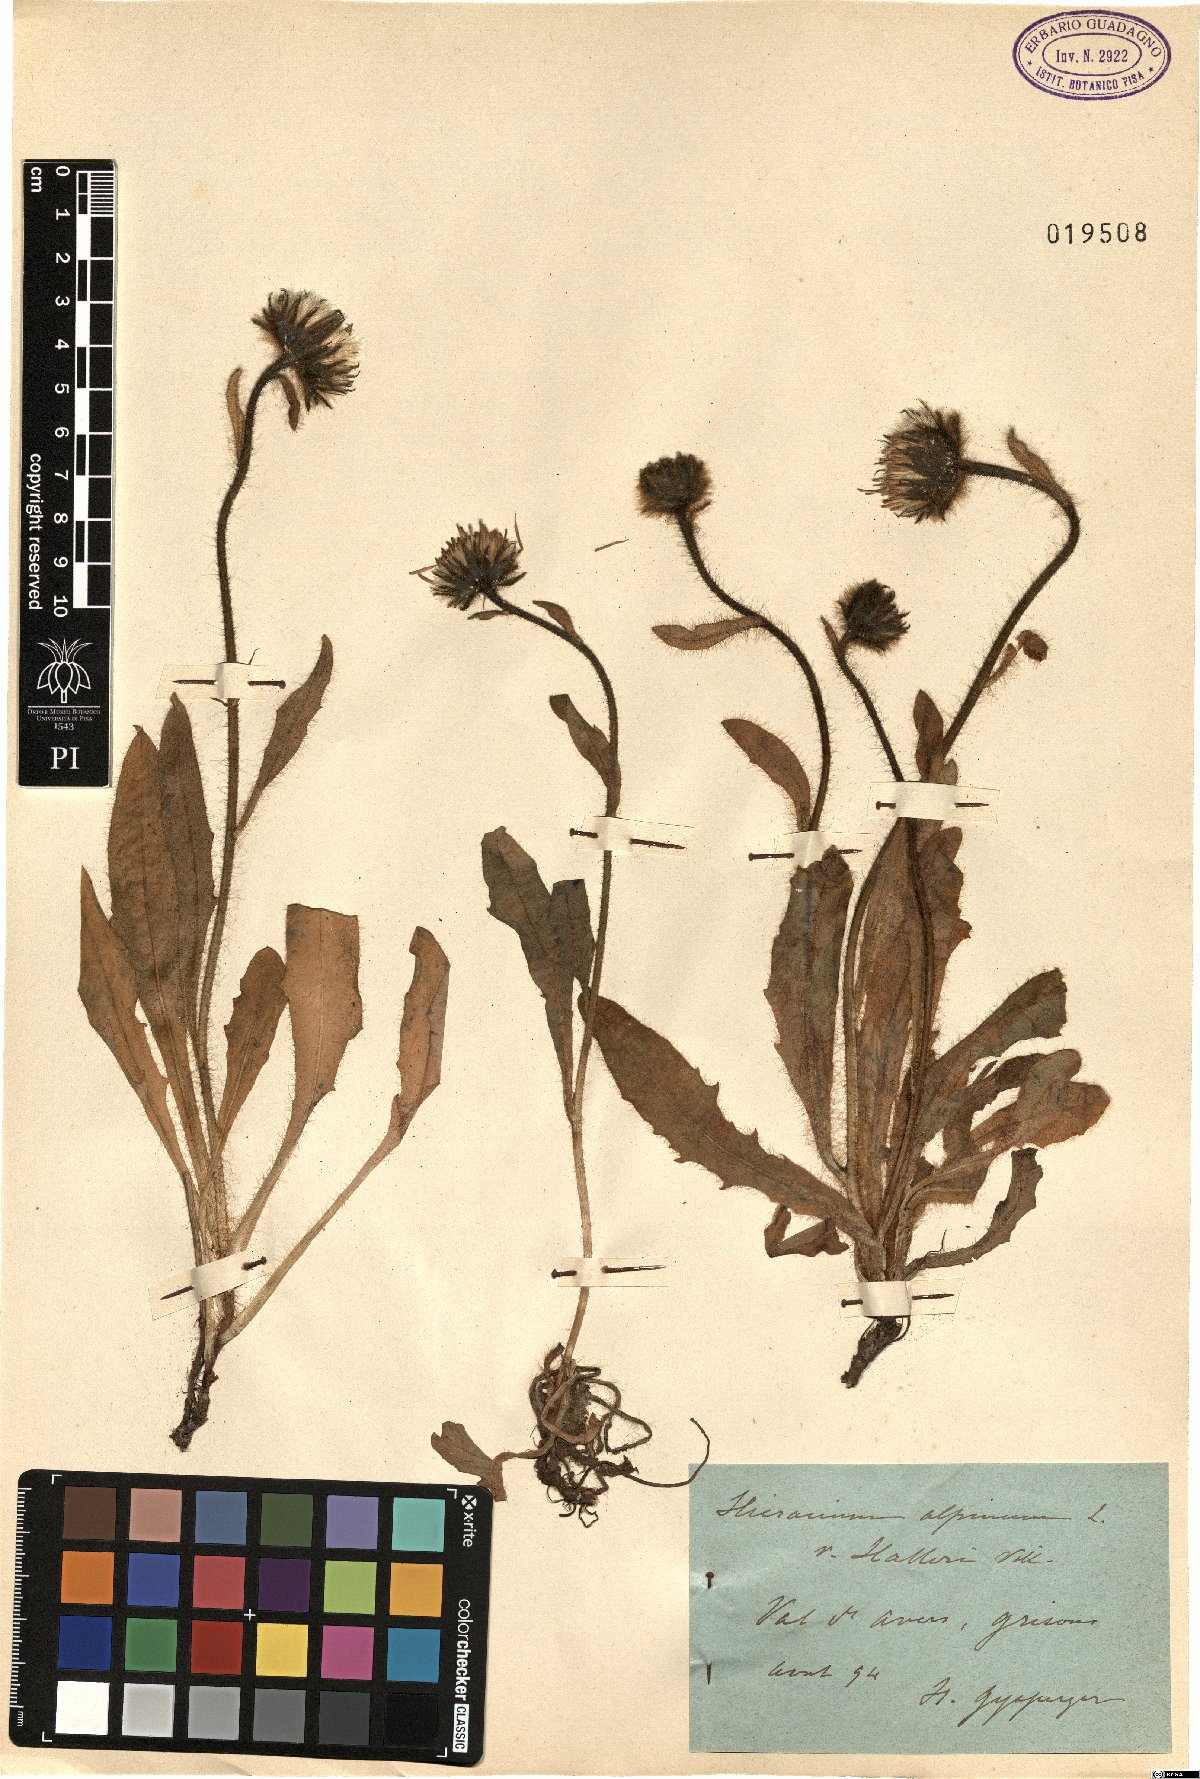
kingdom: Plantae
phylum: Tracheophyta
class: Magnoliopsida
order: Asterales
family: Asteraceae
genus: Hieracium
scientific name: Hieracium alpinum
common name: Alpine hawkweed
